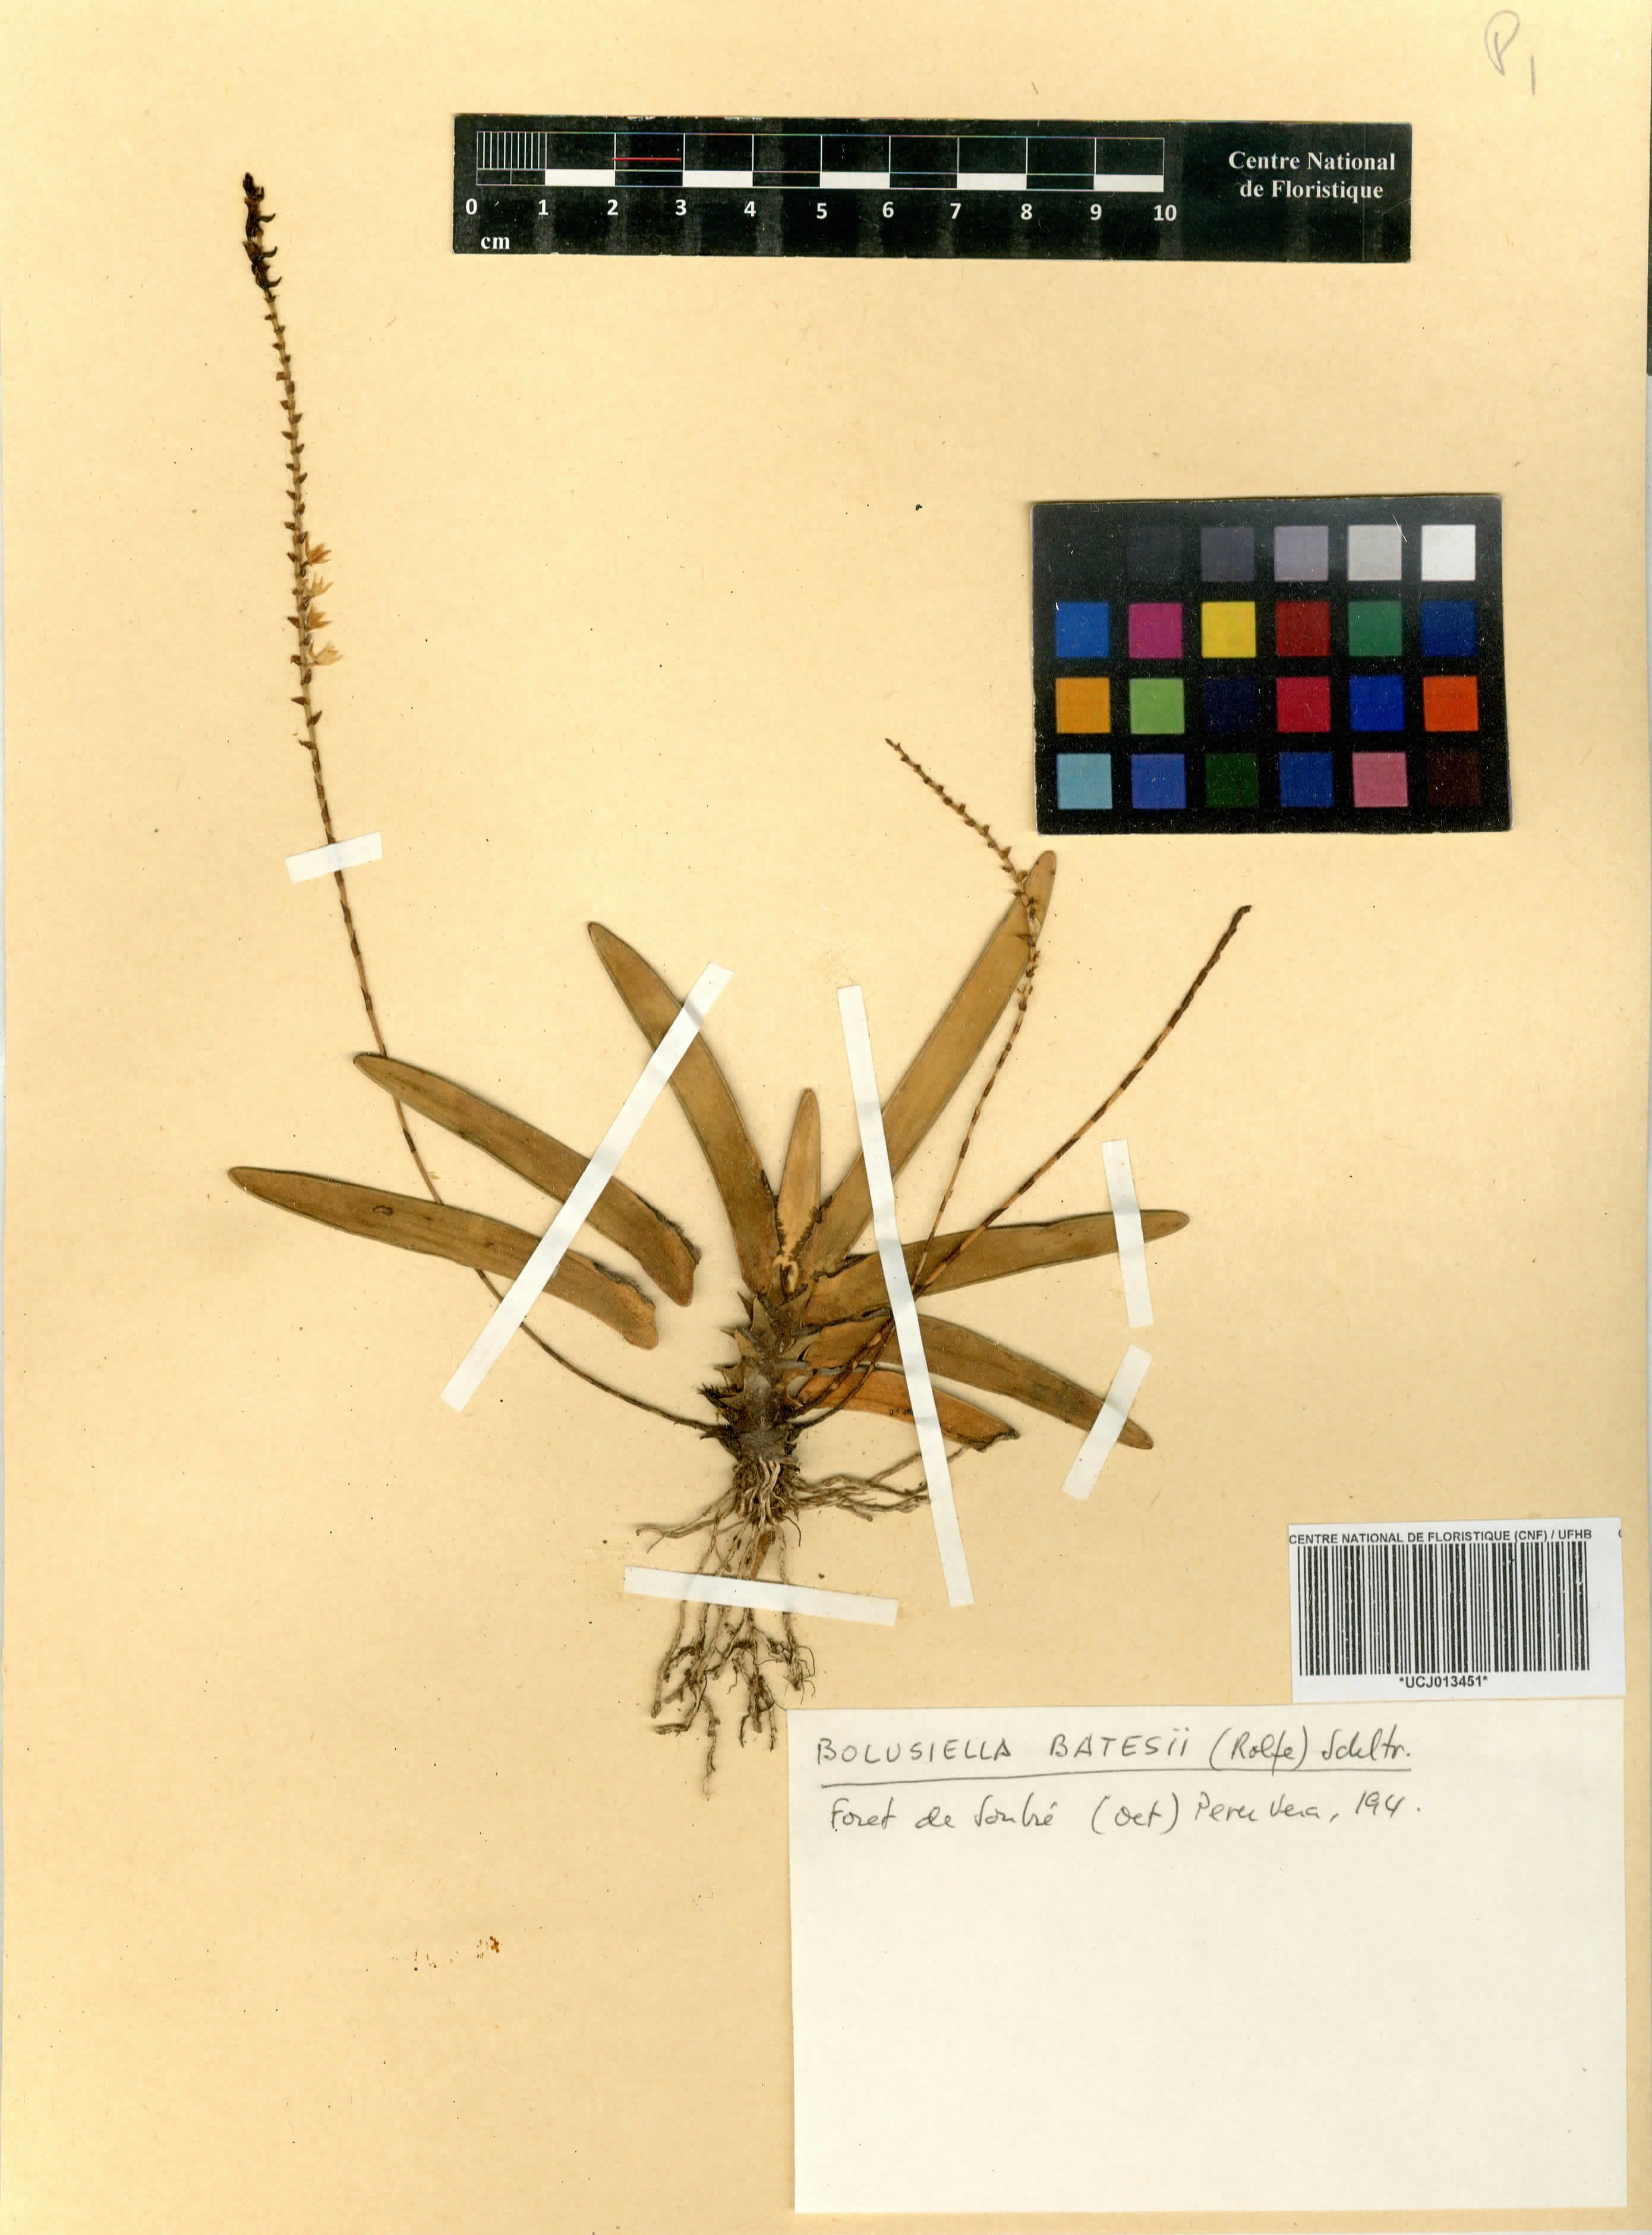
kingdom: Plantae
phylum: Tracheophyta
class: Liliopsida
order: Asparagales
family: Orchidaceae
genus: Bolusiella
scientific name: Bolusiella zenkeri
